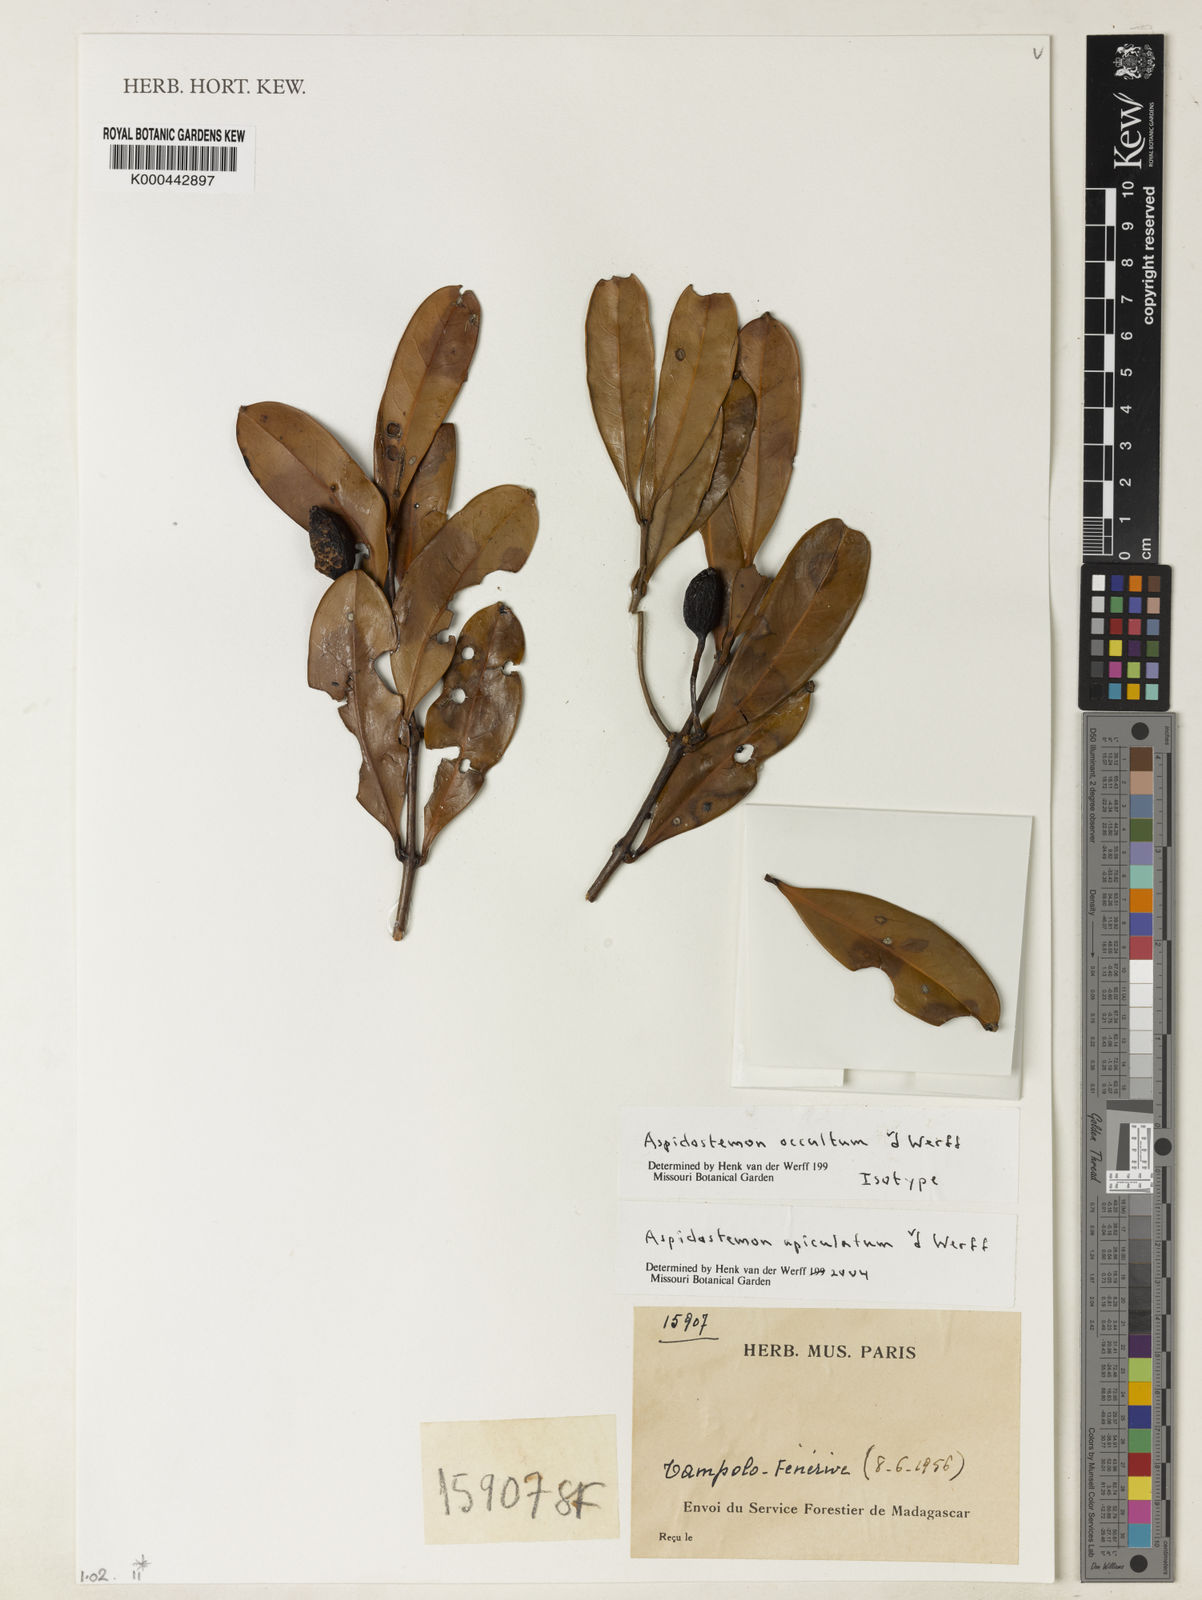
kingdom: Plantae
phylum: Tracheophyta
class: Magnoliopsida
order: Laurales
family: Lauraceae
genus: Aspidostemon
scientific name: Aspidostemon apiculatus
